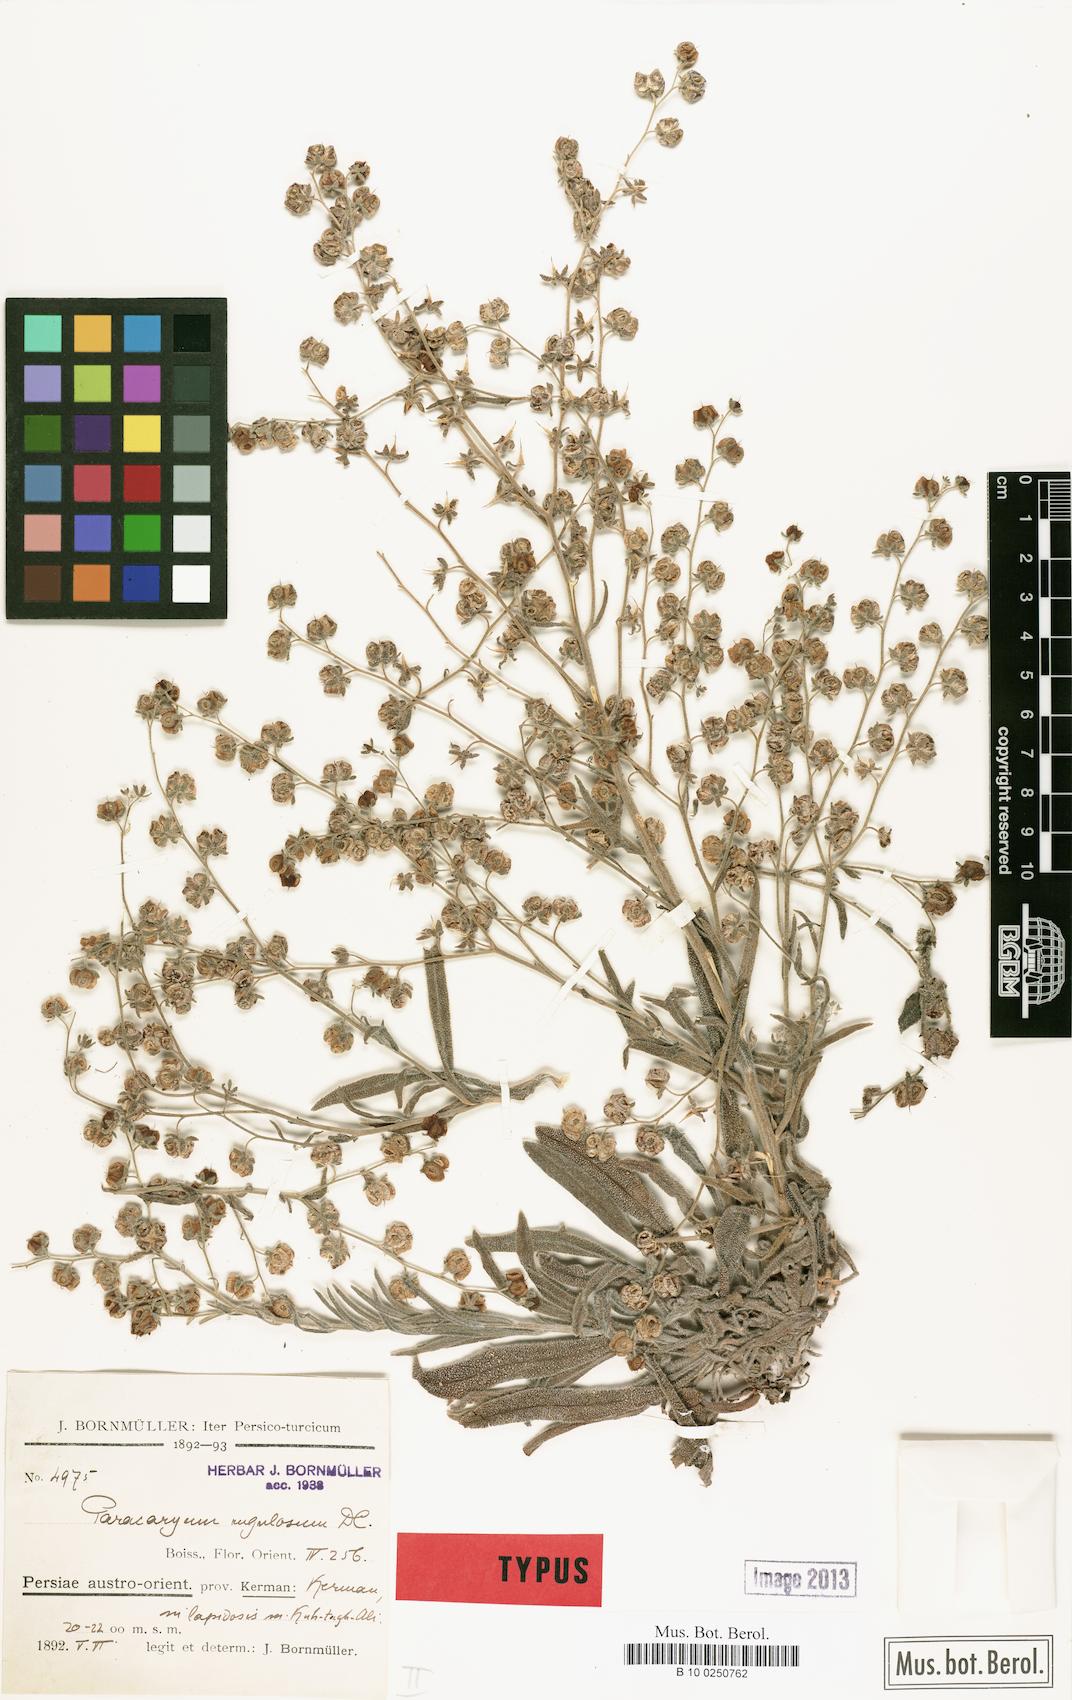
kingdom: Plantae
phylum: Tracheophyta
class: Magnoliopsida
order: Boraginales
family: Boraginaceae
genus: Paracaryum
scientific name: Paracaryum rugulosum
